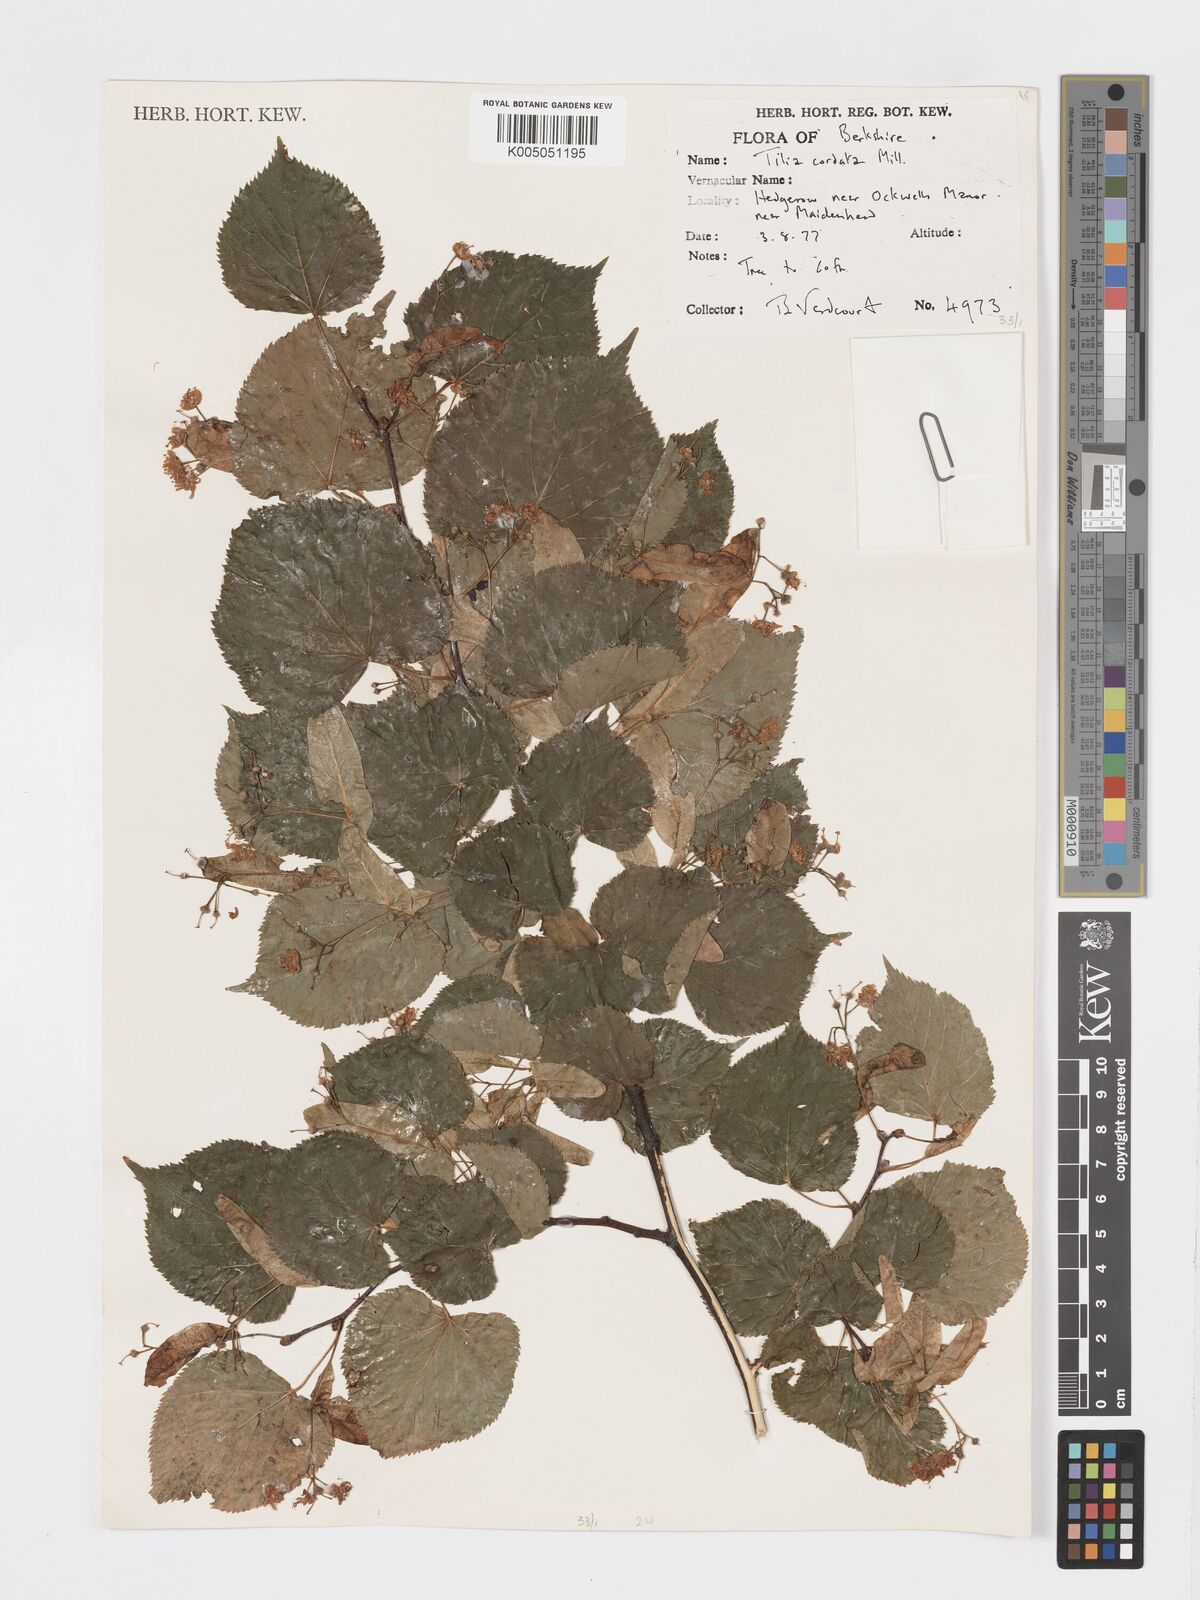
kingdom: Plantae
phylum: Tracheophyta
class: Magnoliopsida
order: Malvales
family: Malvaceae
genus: Tilia
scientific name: Tilia
